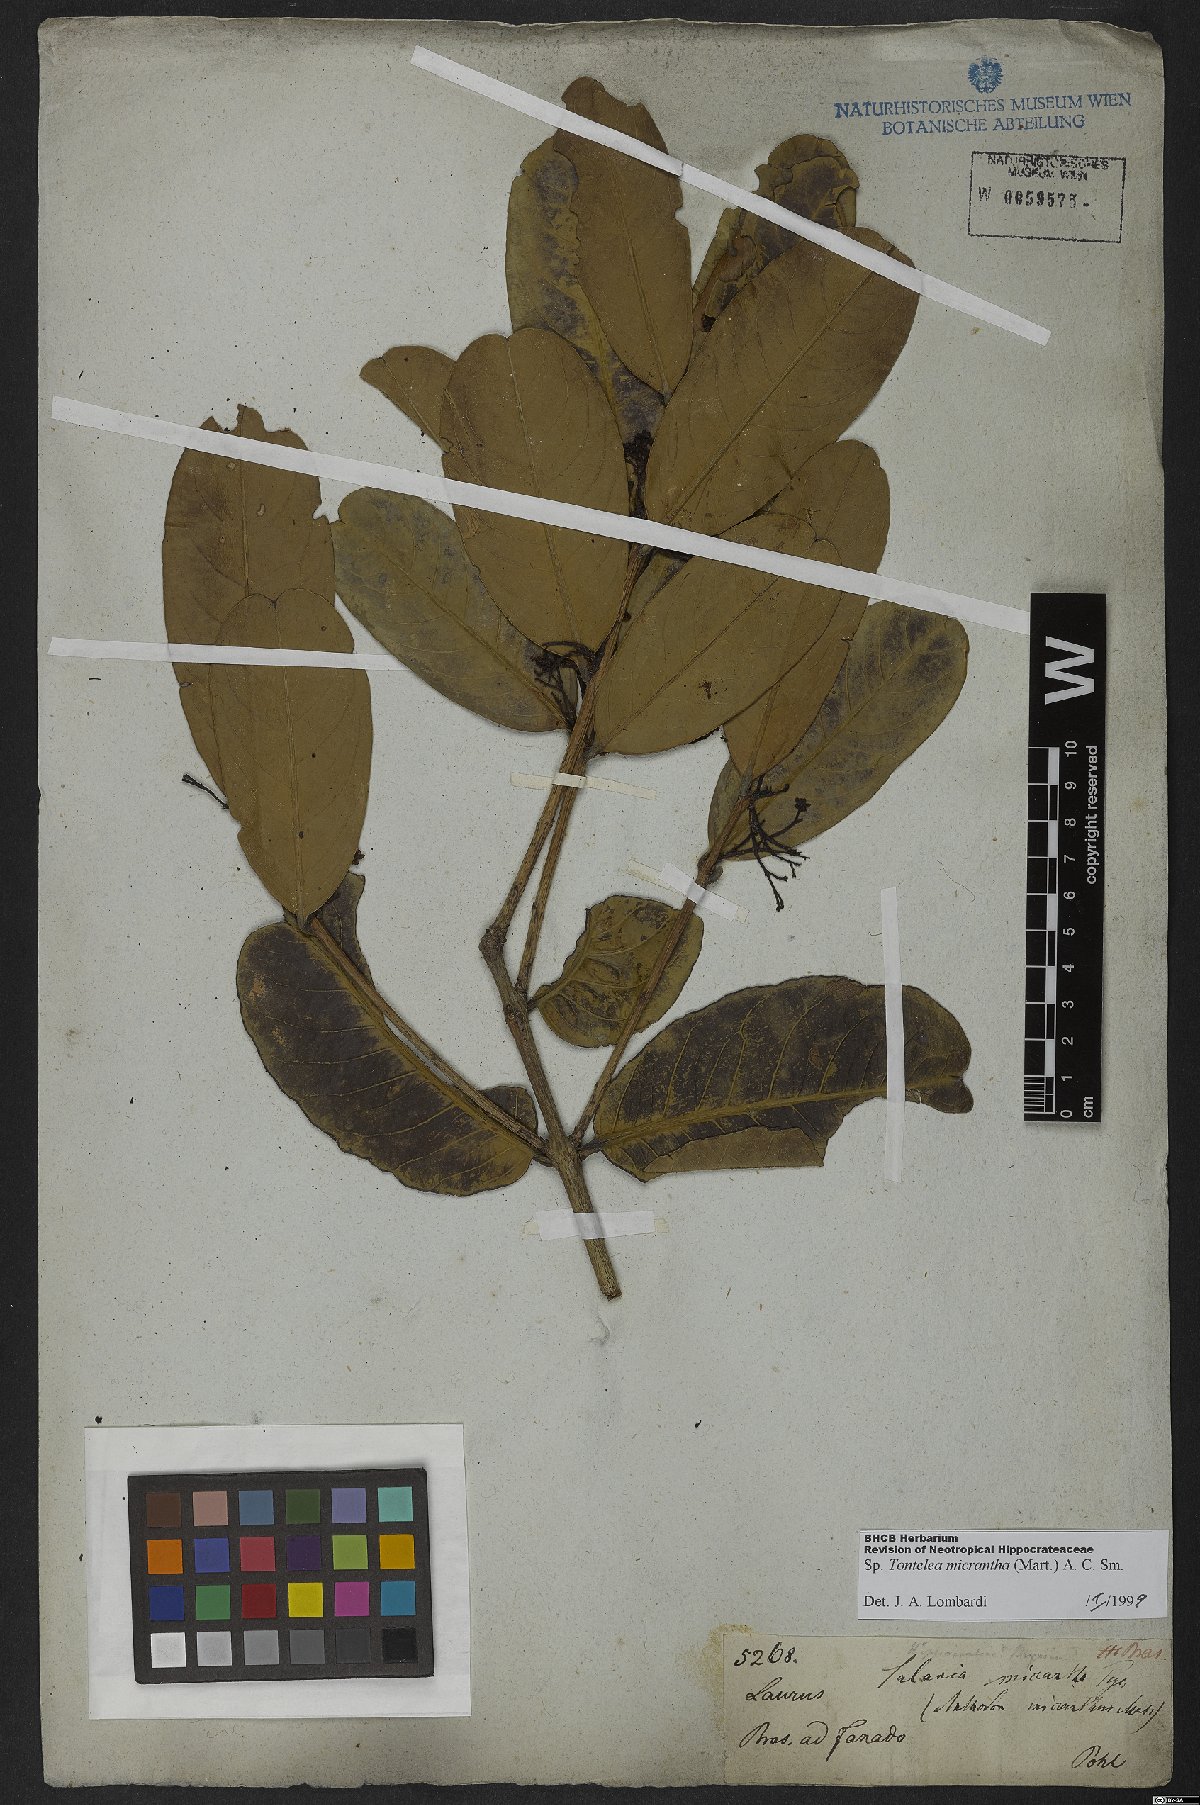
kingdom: Plantae
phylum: Tracheophyta
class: Magnoliopsida
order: Celastrales
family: Celastraceae
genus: Tontelea
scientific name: Tontelea micrantha
